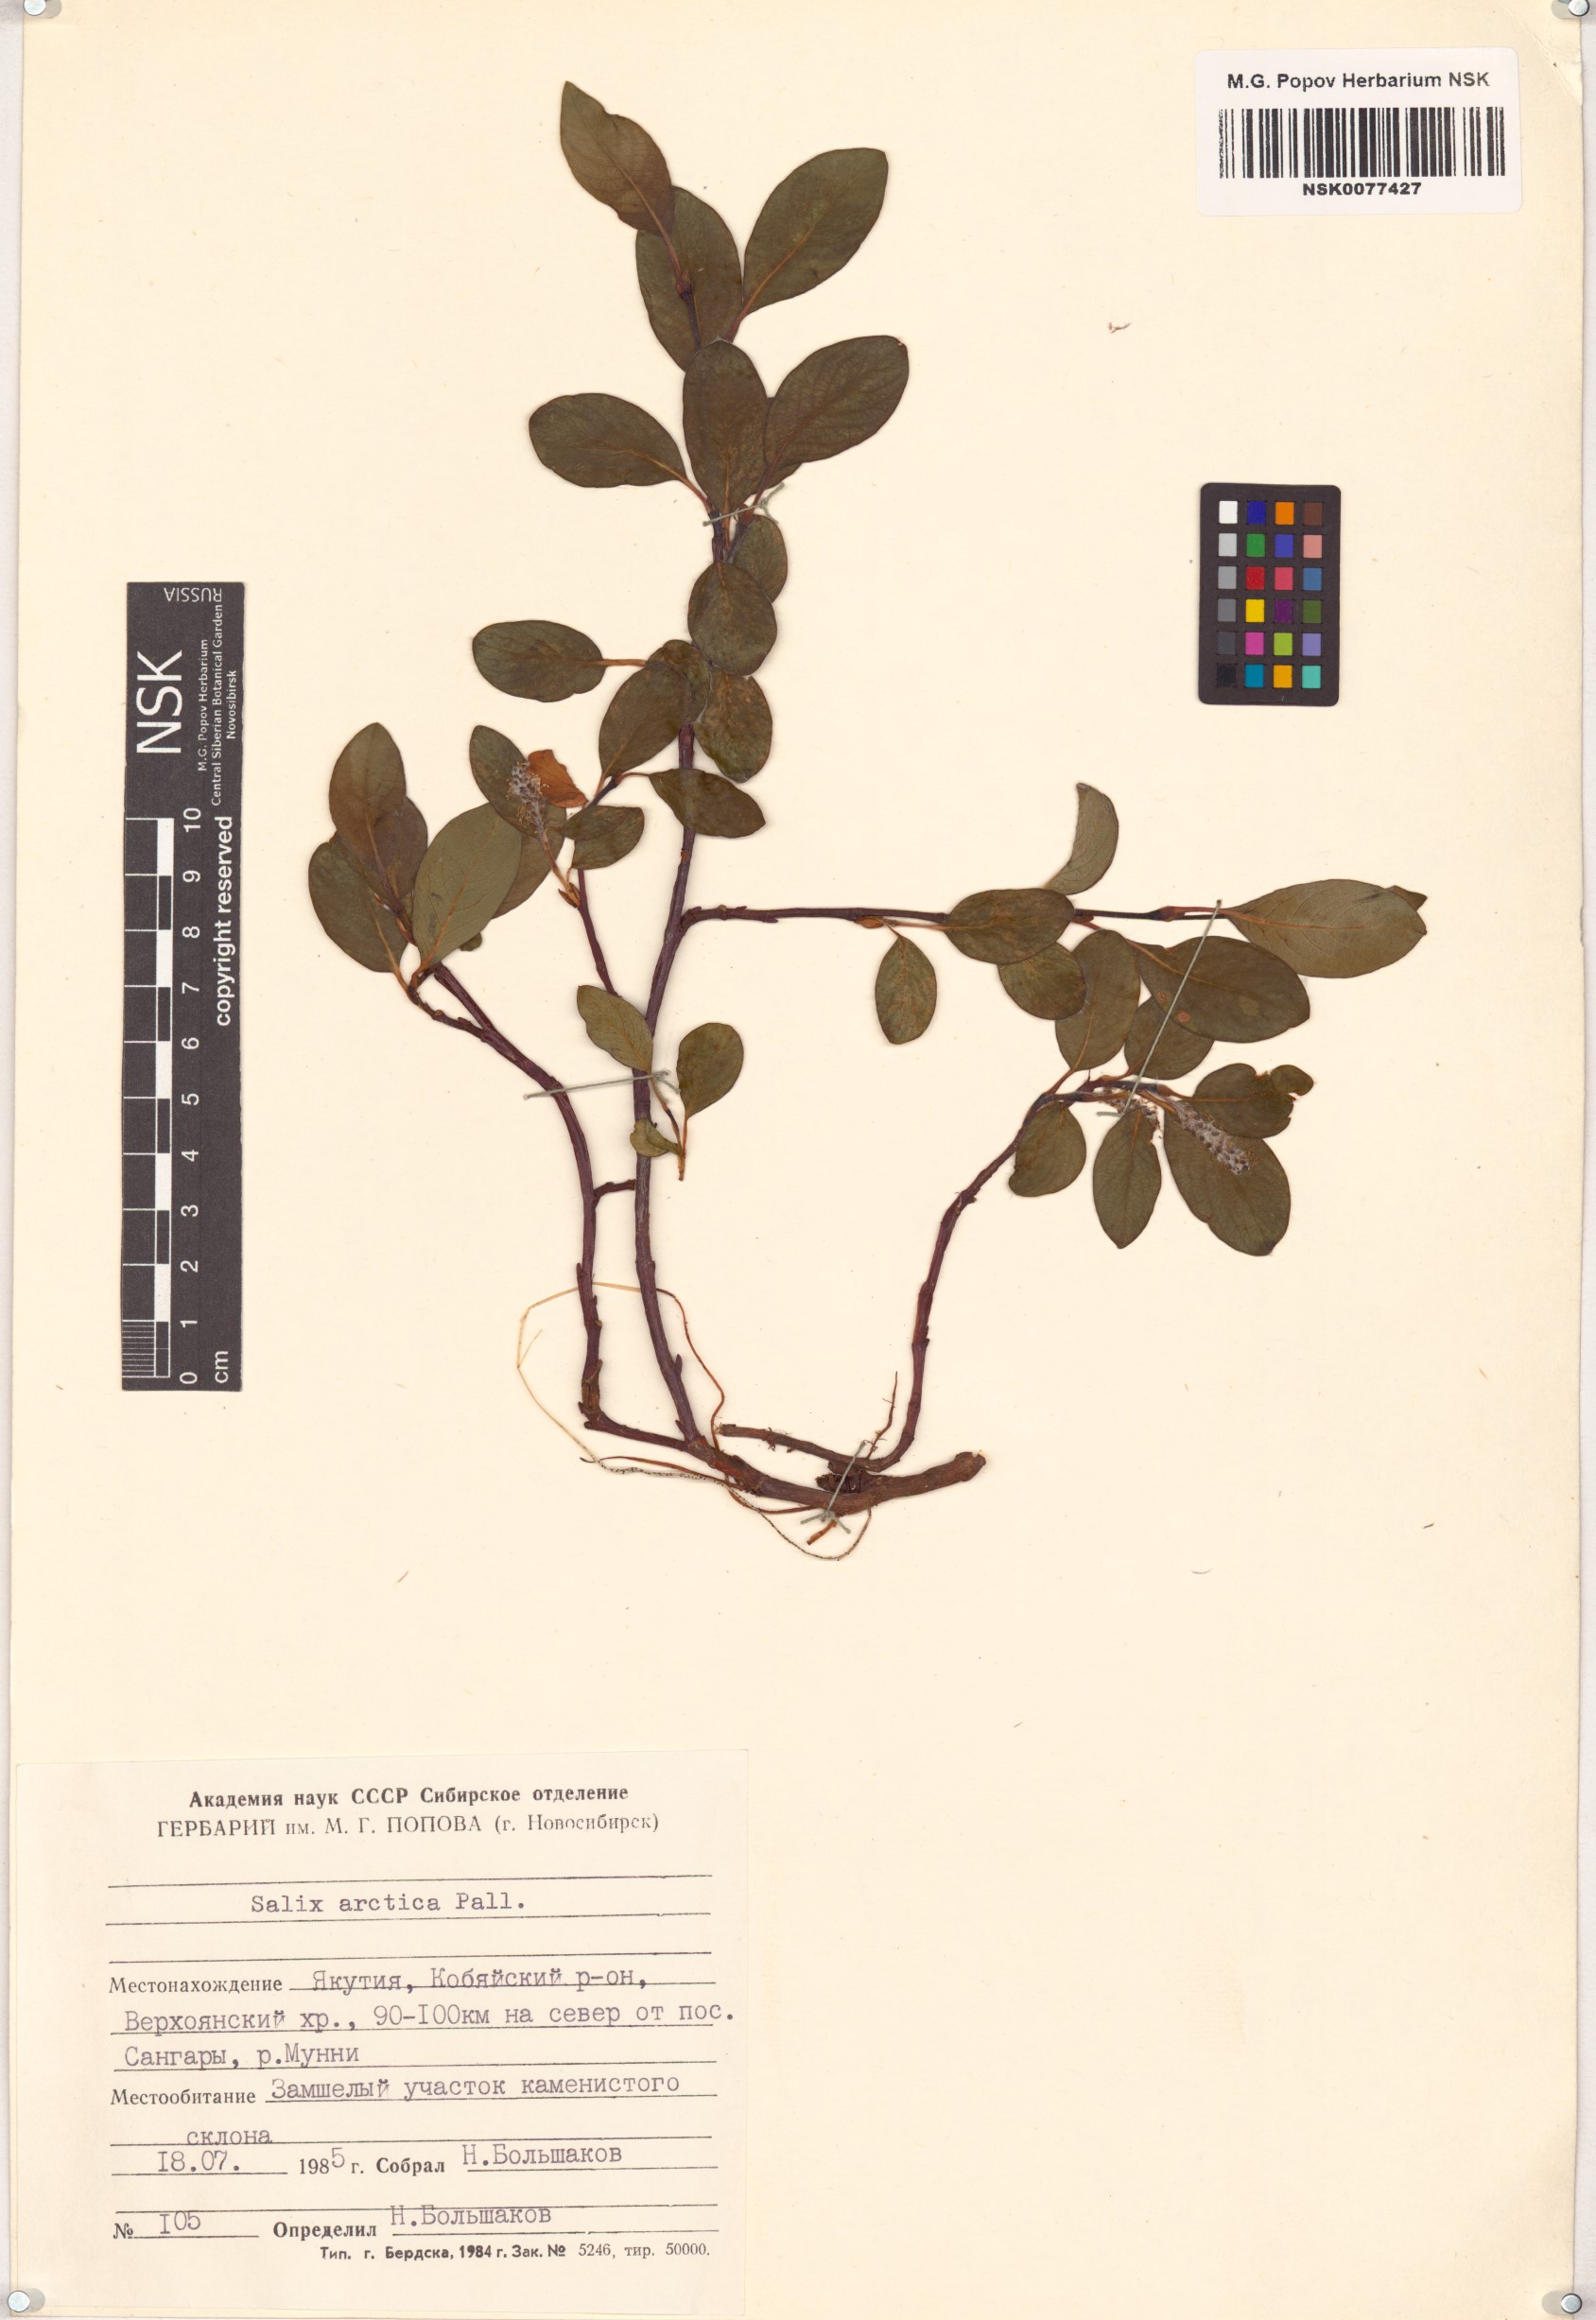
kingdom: Plantae
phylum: Tracheophyta
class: Magnoliopsida
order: Malpighiales
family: Salicaceae
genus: Salix
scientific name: Salix arctica
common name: Arctic willow
